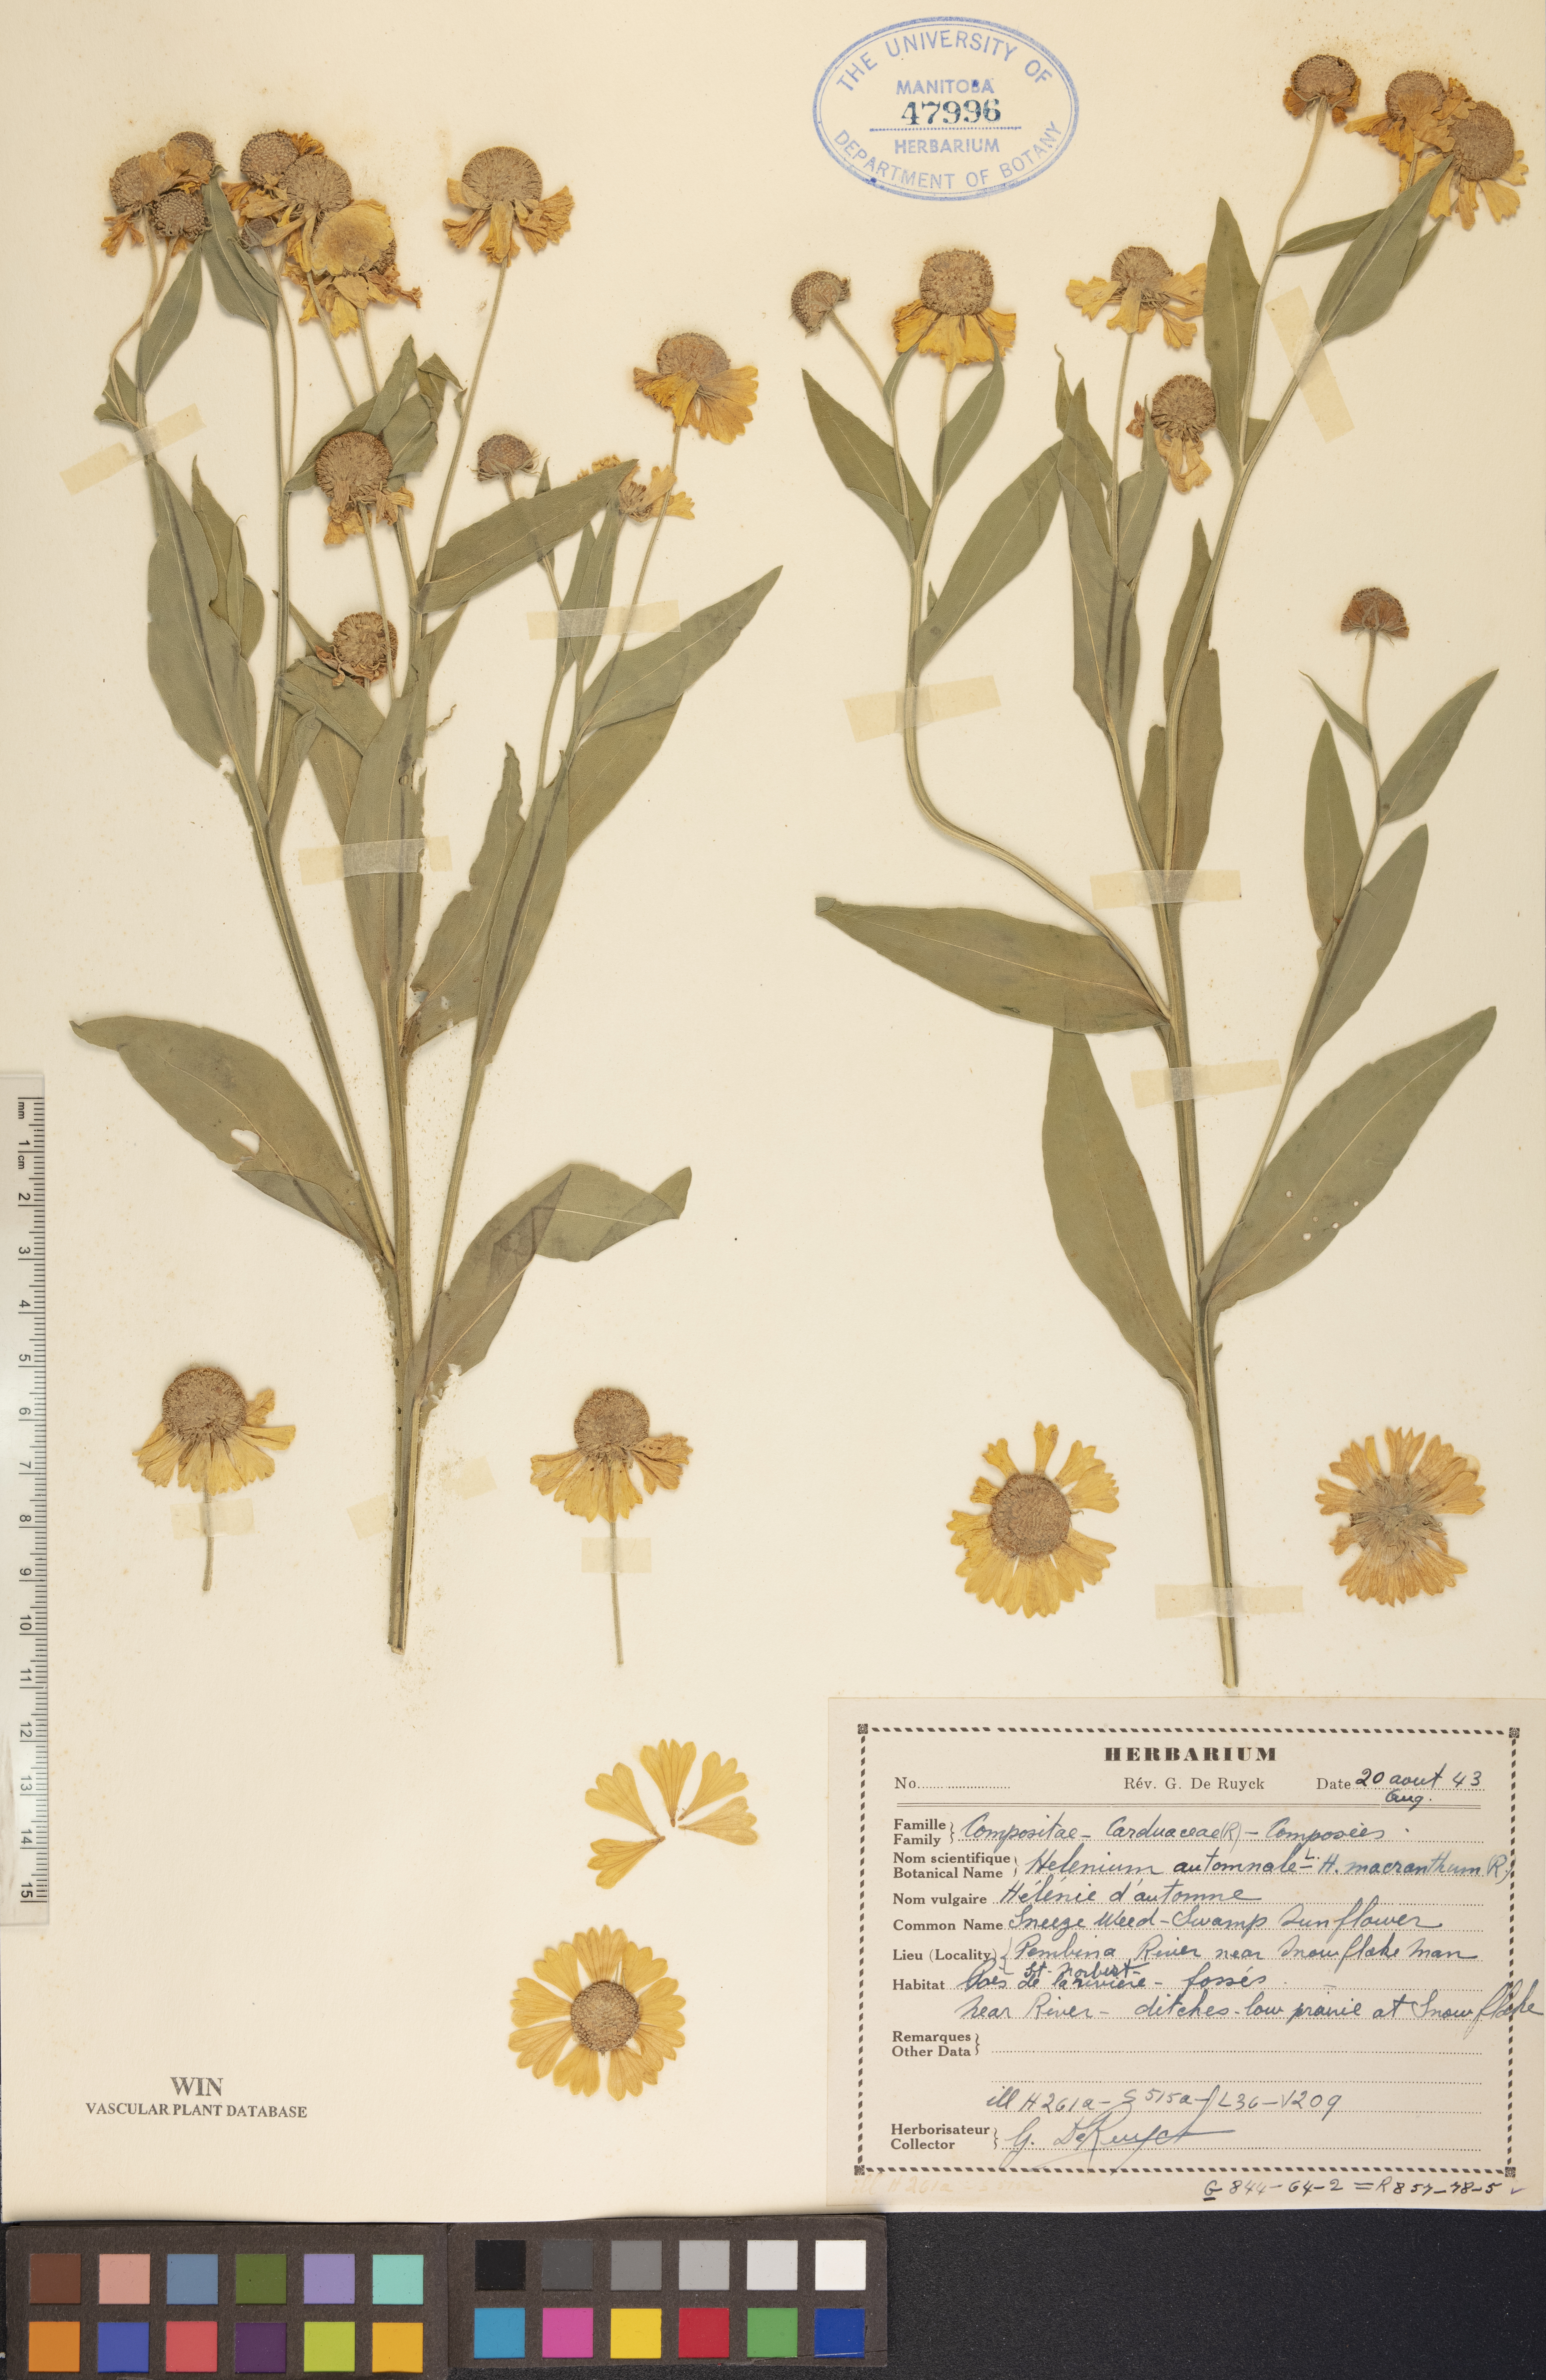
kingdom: Plantae
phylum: Tracheophyta
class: Magnoliopsida
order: Asterales
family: Asteraceae
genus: Helenium
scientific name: Helenium autumnale
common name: Sneezeweed
